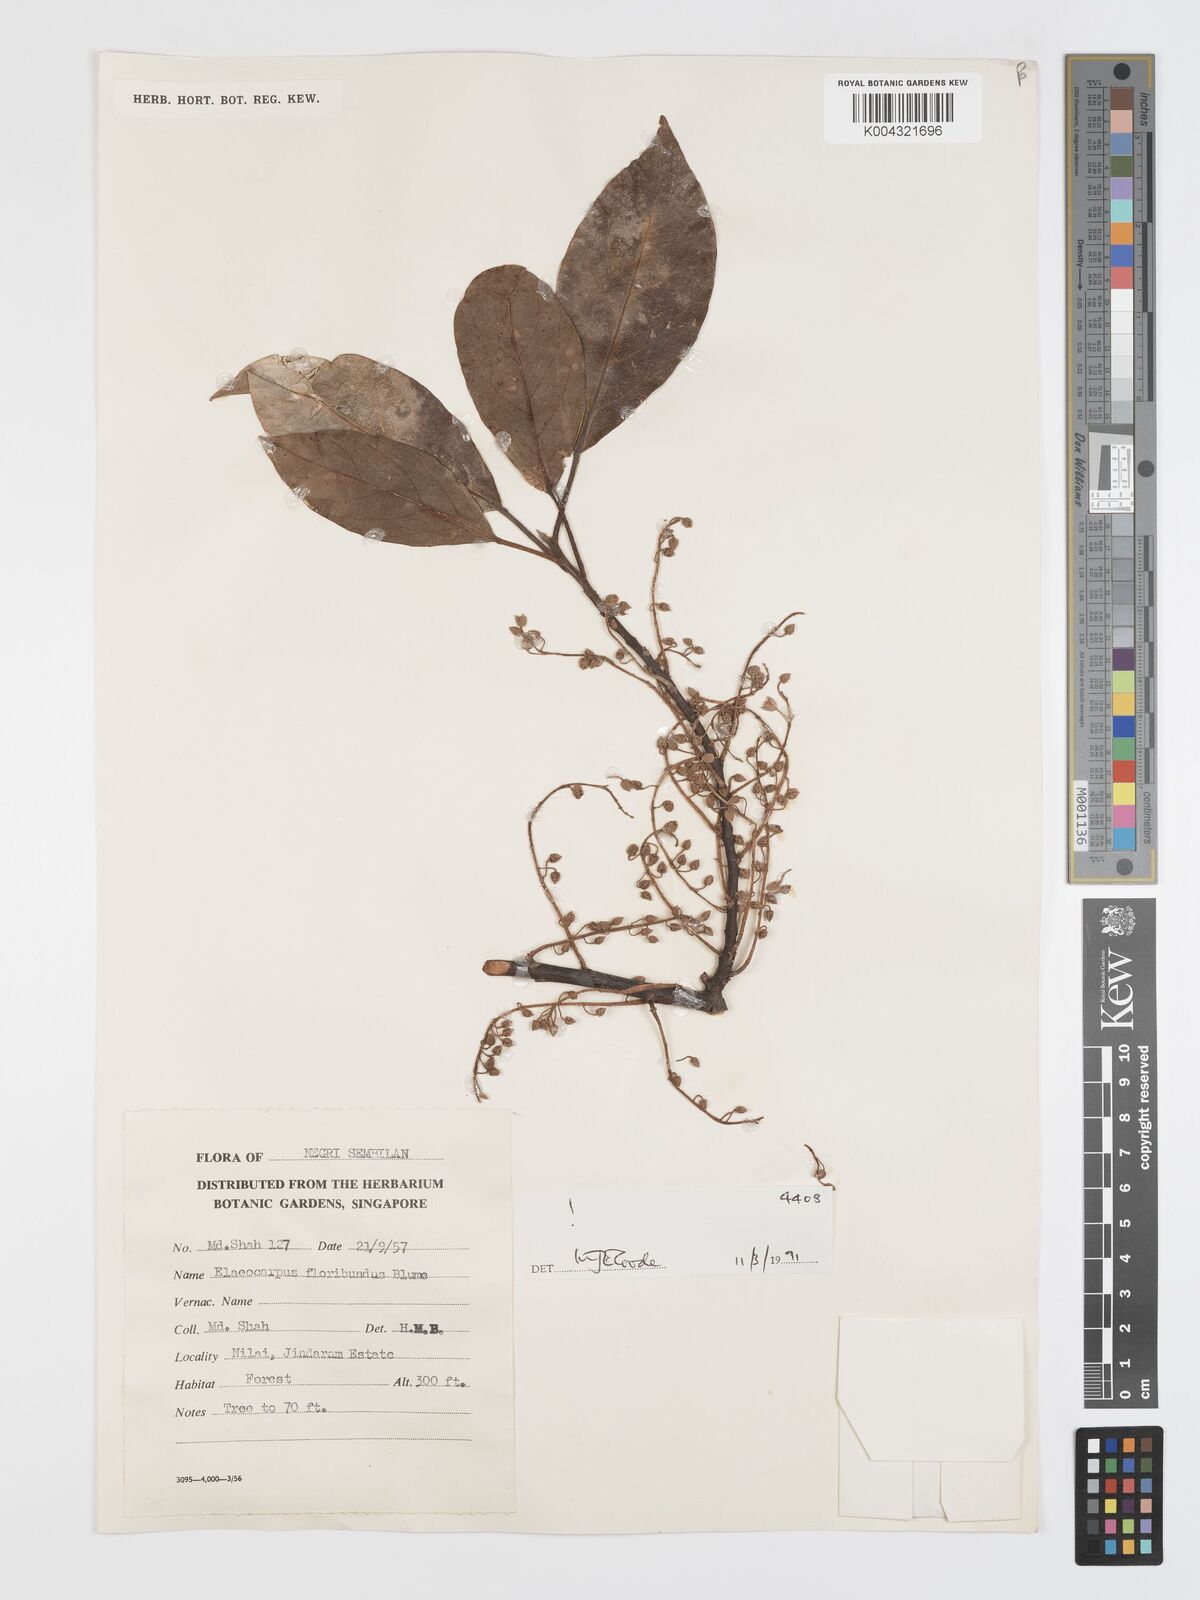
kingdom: Plantae
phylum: Tracheophyta
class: Magnoliopsida
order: Oxalidales
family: Elaeocarpaceae
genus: Elaeocarpus
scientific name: Elaeocarpus floribundus
